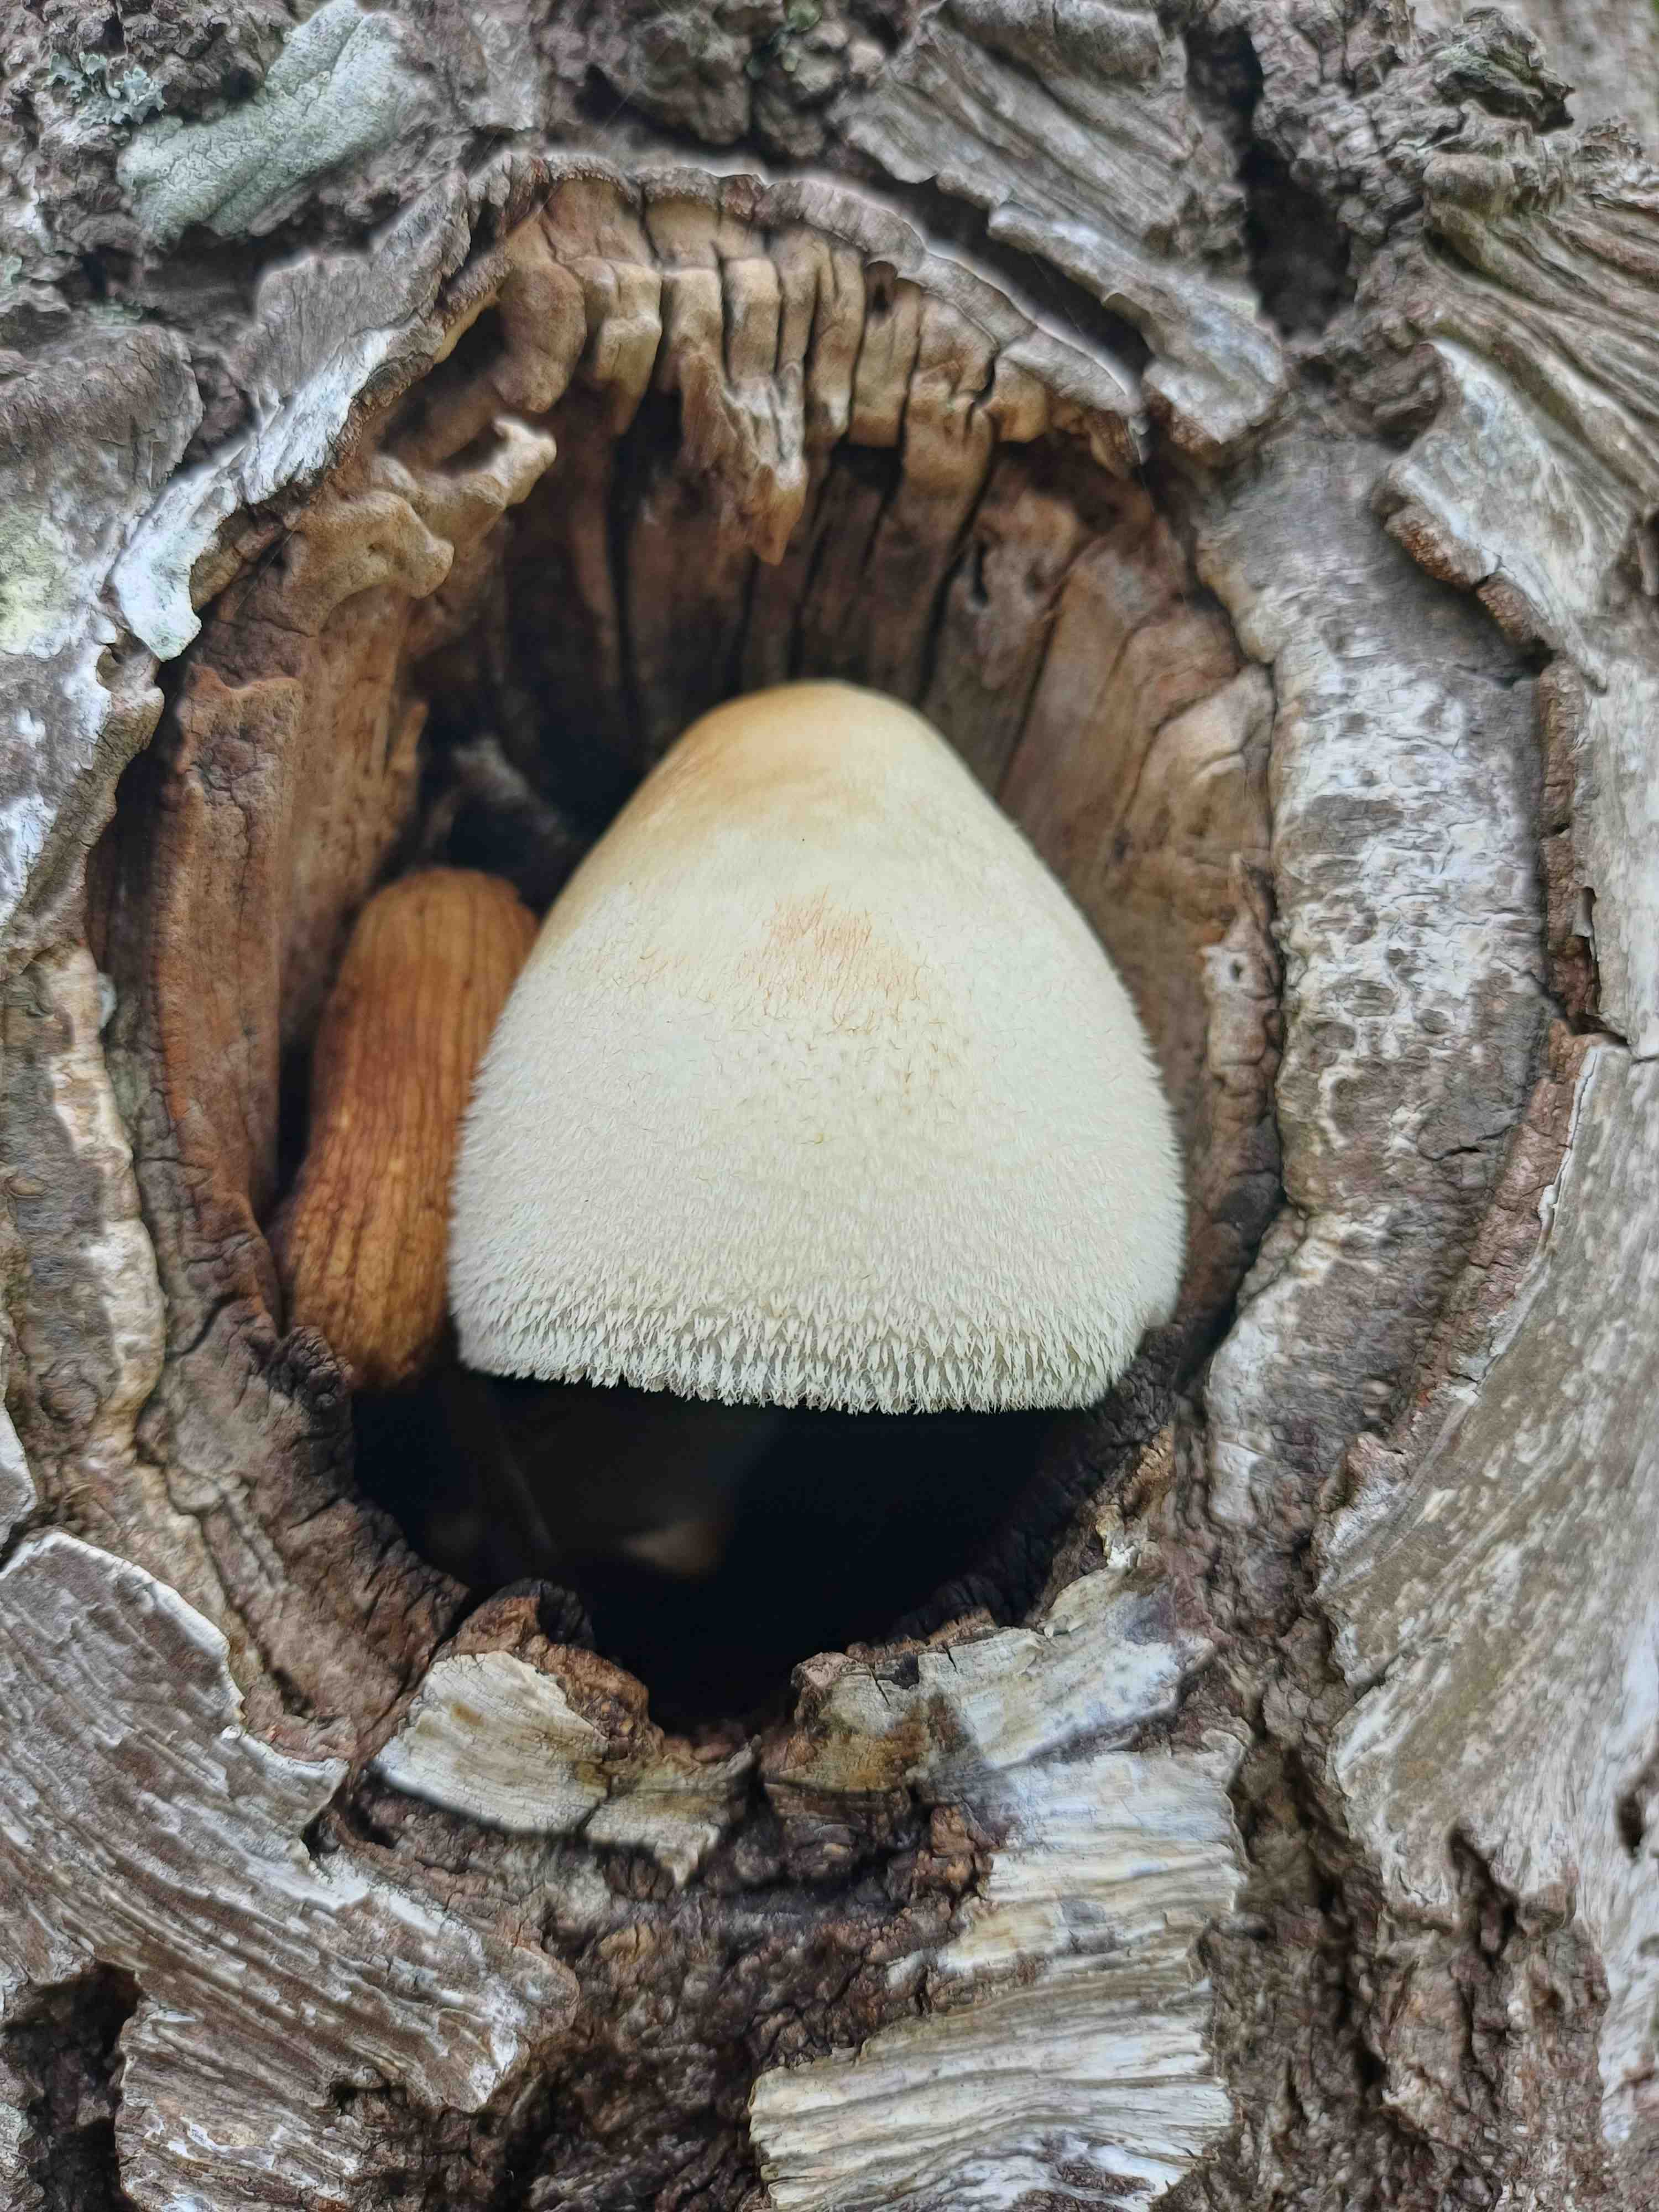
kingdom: Fungi
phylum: Basidiomycota
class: Agaricomycetes
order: Agaricales
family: Pluteaceae
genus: Volvariella
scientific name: Volvariella bombycina
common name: silkehåret posesvamp
